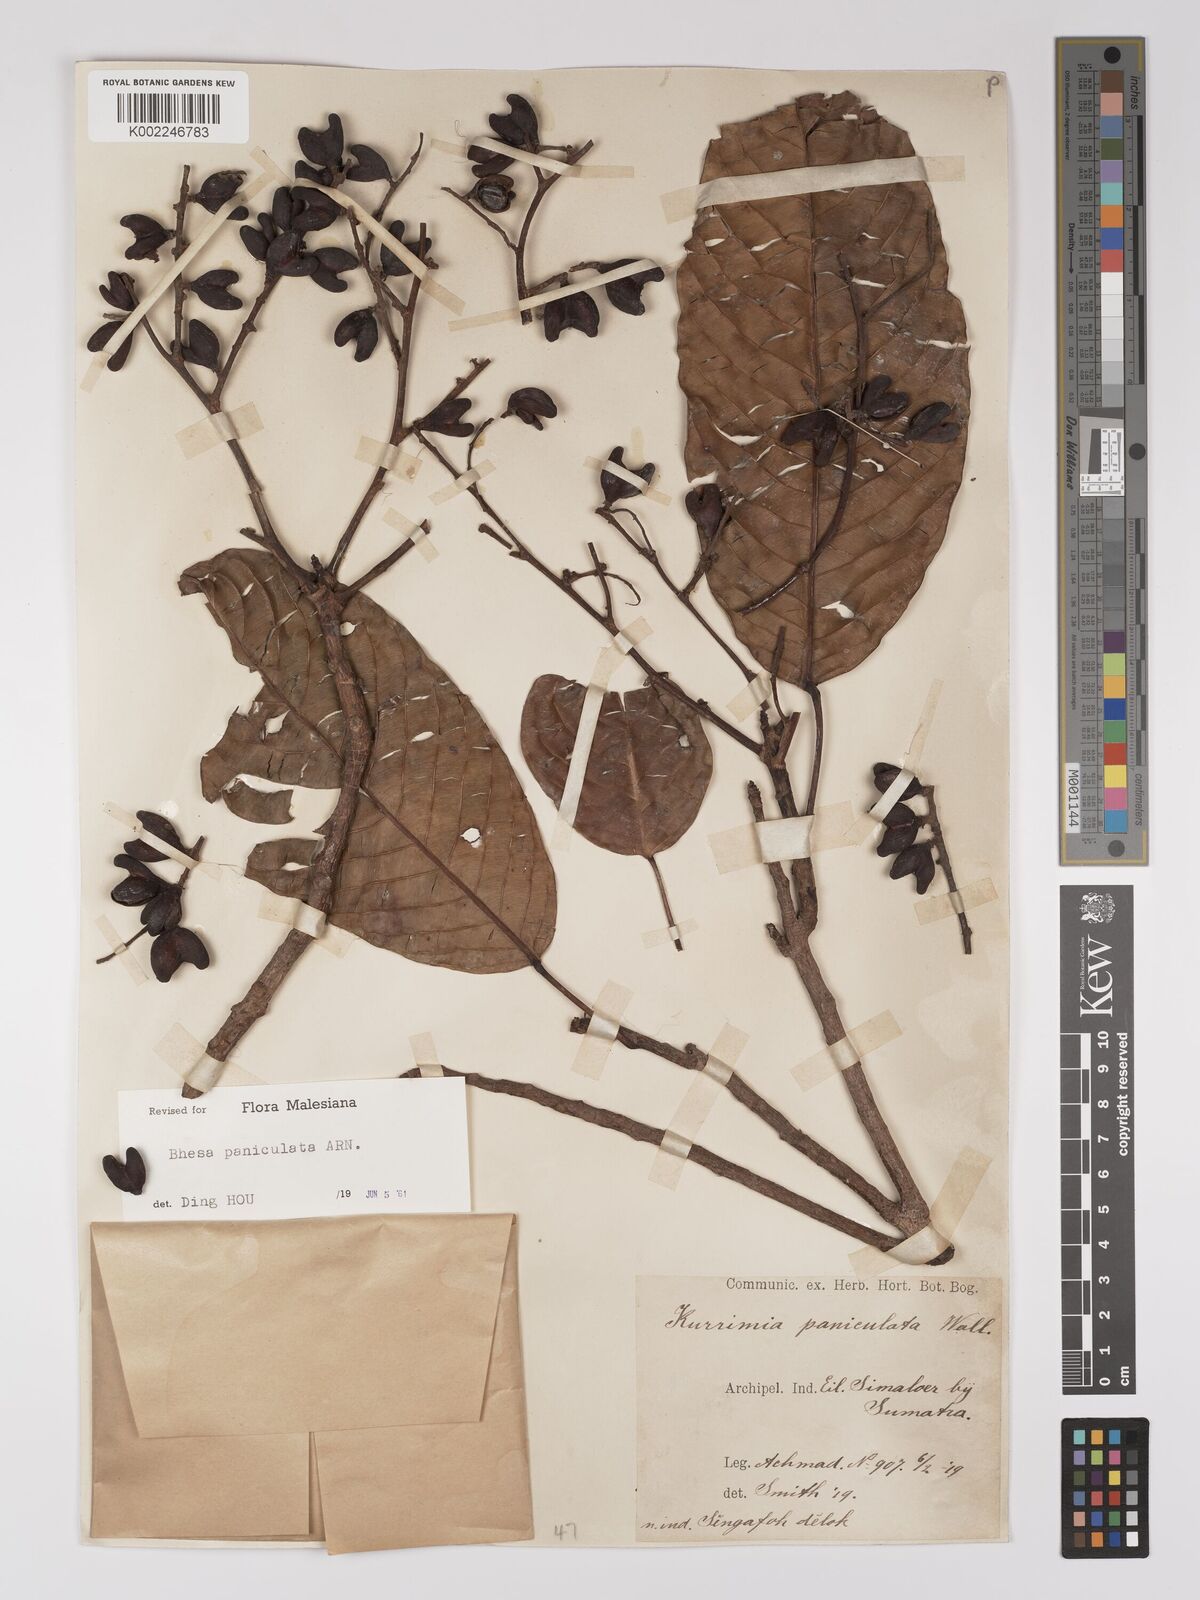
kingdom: Plantae
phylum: Tracheophyta
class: Magnoliopsida
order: Malpighiales
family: Centroplacaceae
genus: Bhesa
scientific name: Bhesa paniculata
